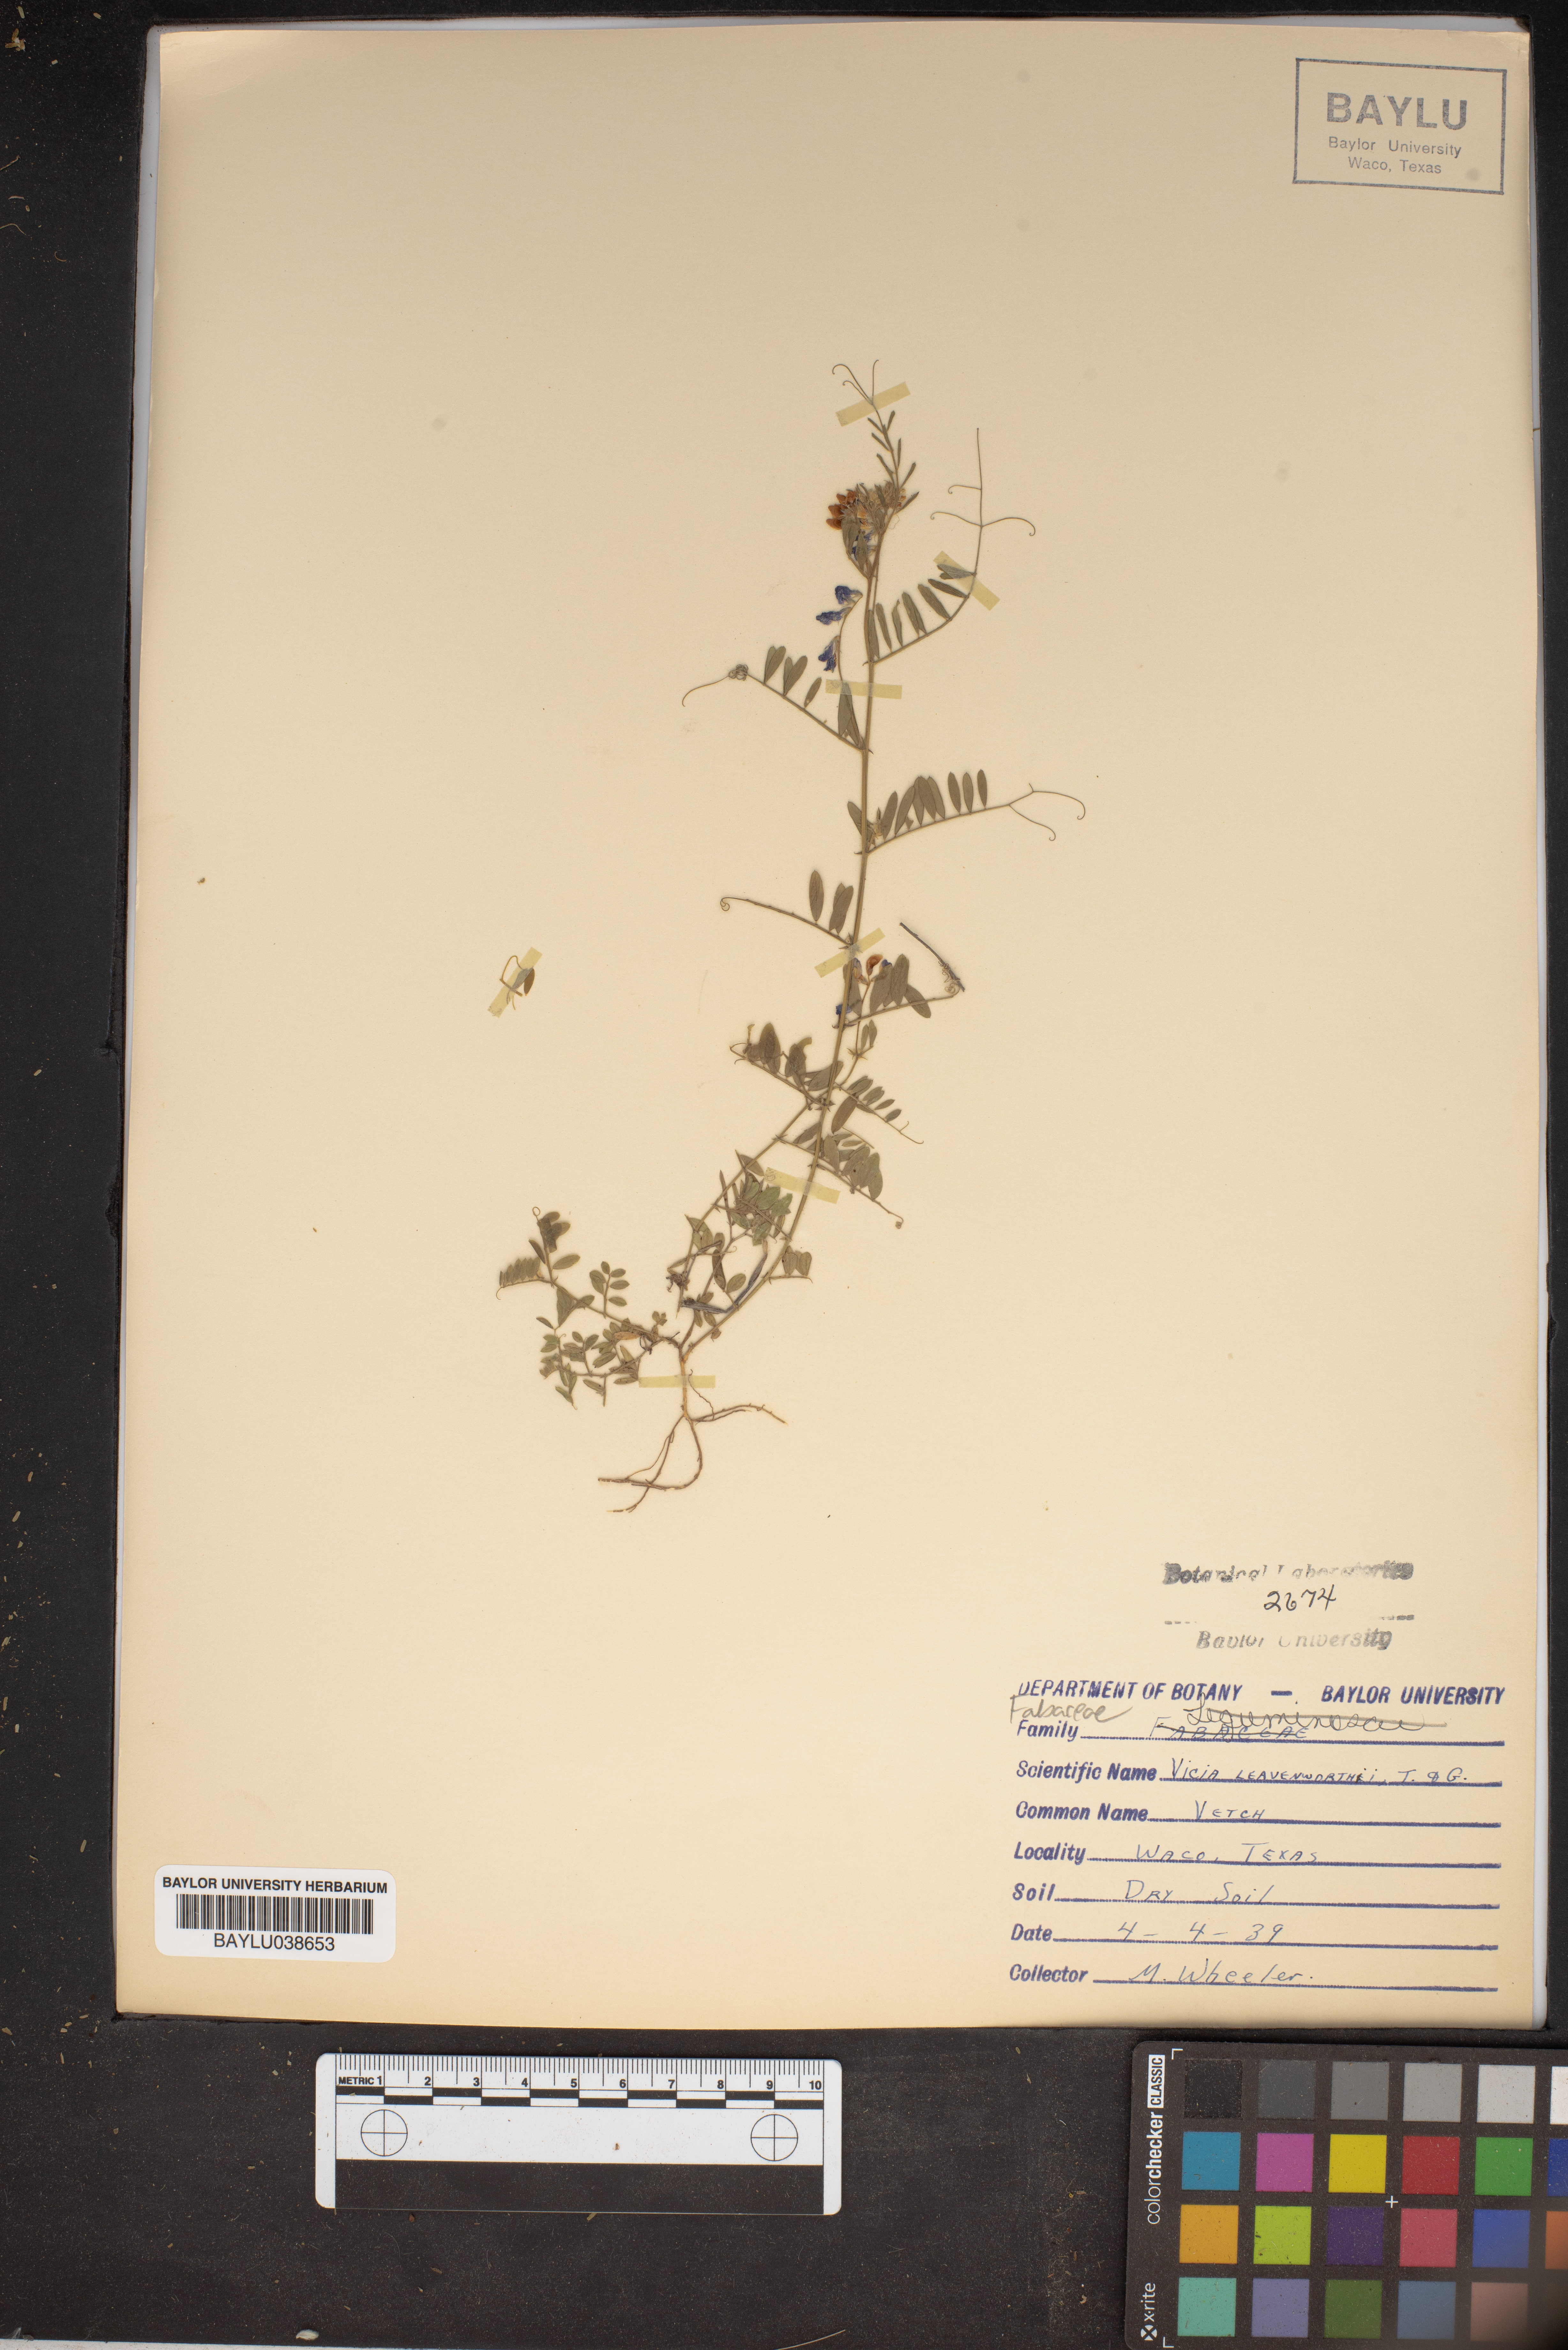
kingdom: Plantae
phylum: Tracheophyta
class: Magnoliopsida
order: Fabales
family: Fabaceae
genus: Vicia
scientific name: Vicia ludoviciana
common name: Louisiana vetch
